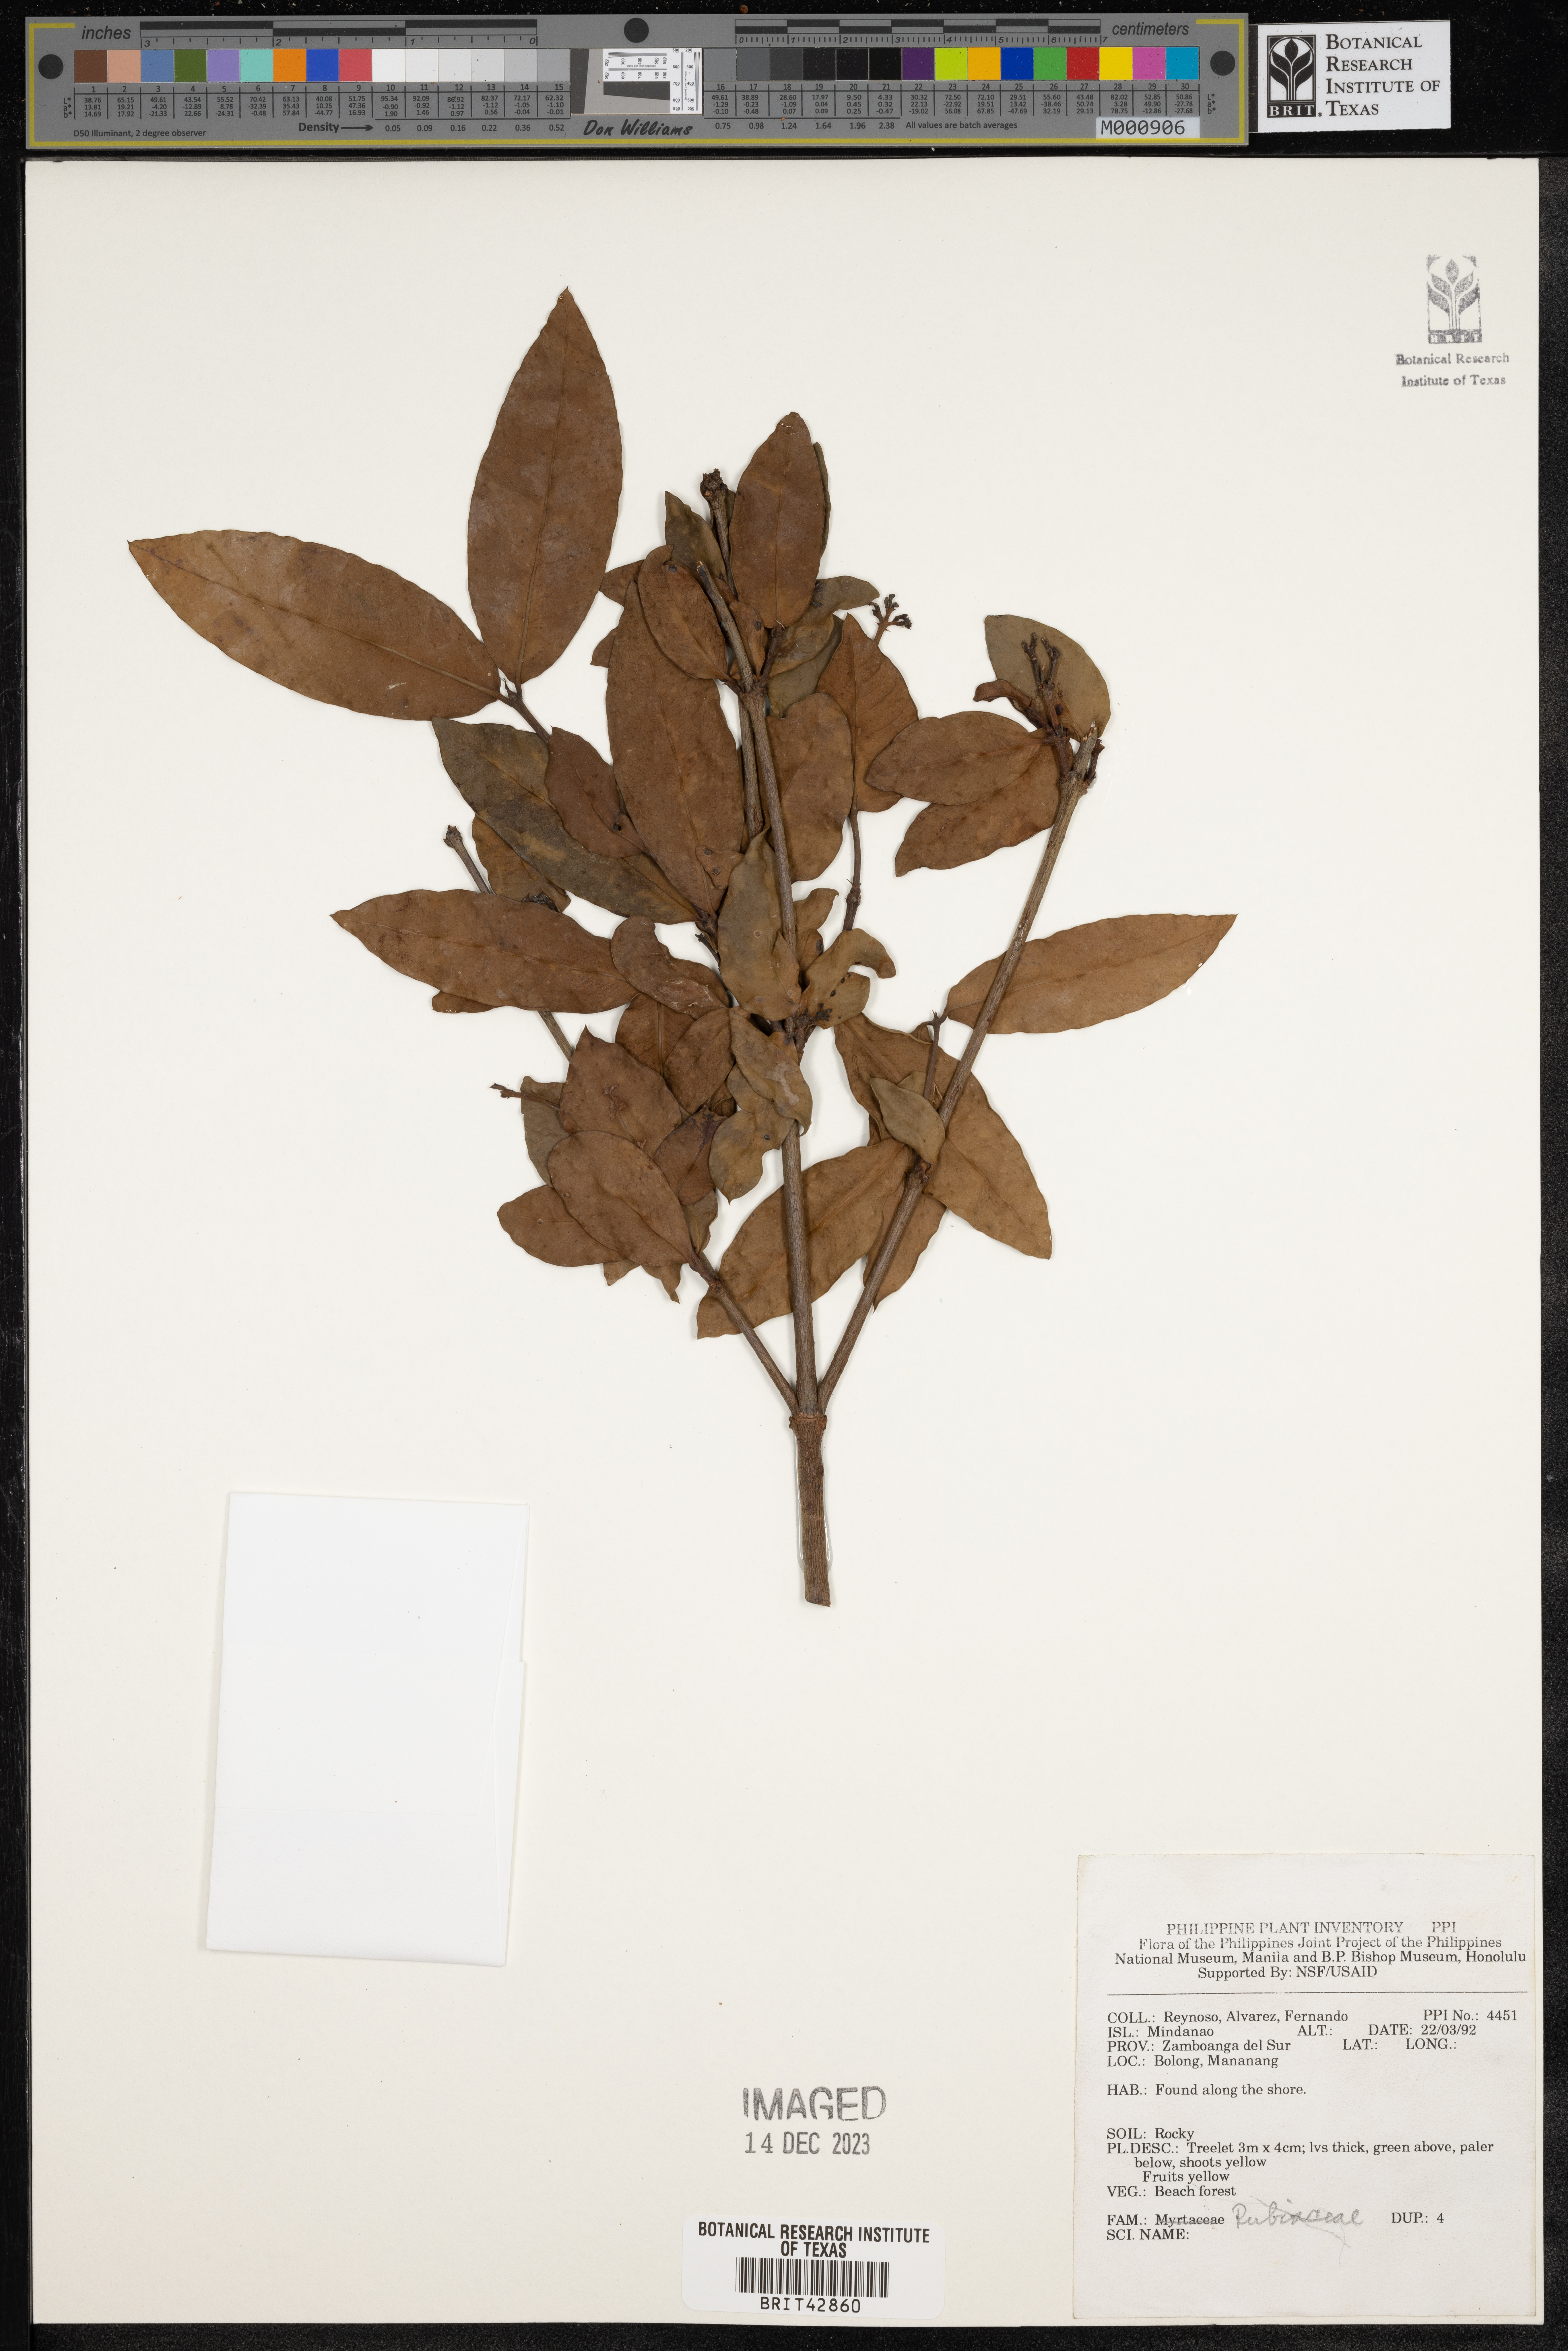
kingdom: Plantae
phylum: Tracheophyta
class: Magnoliopsida
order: Gentianales
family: Rubiaceae
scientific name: Rubiaceae
